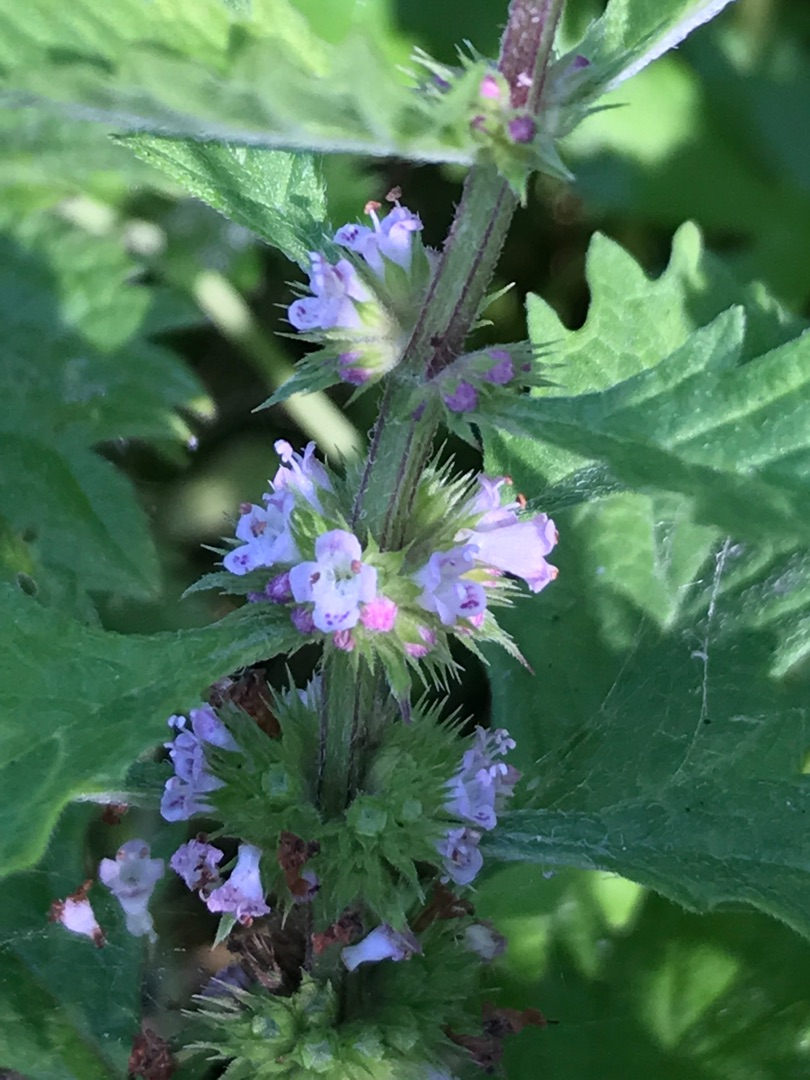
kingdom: Plantae
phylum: Tracheophyta
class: Magnoliopsida
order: Lamiales
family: Lamiaceae
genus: Lycopus
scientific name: Lycopus europaeus
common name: Sværtevæld
